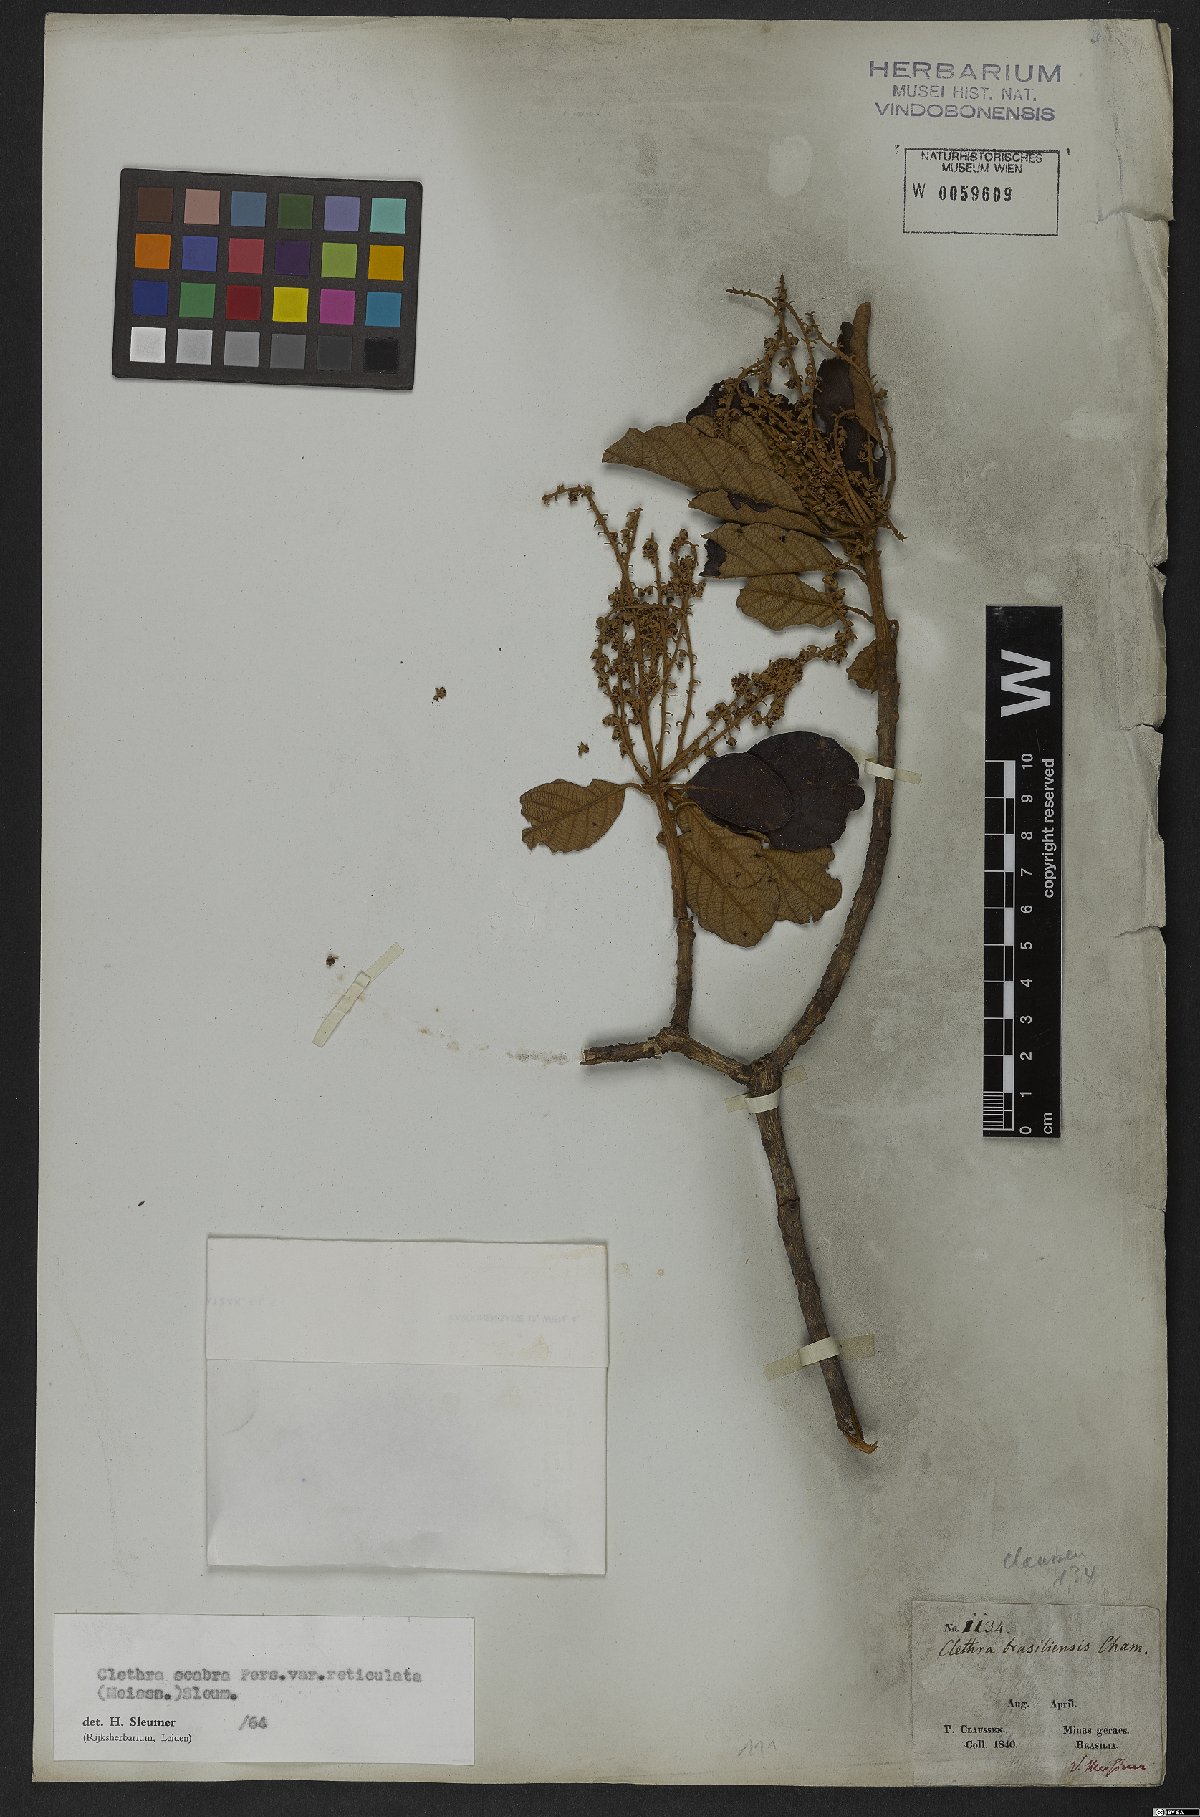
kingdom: Plantae
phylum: Tracheophyta
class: Magnoliopsida
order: Ericales
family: Clethraceae
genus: Clethra
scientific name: Clethra scabra
